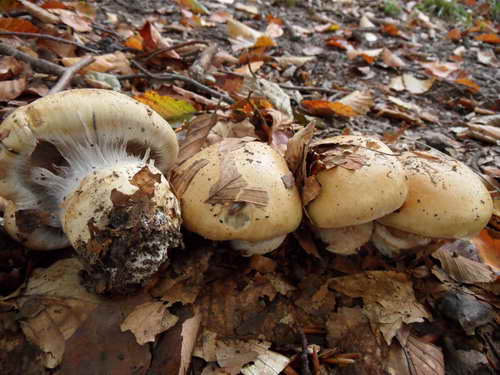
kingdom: Fungi
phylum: Basidiomycota
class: Agaricomycetes
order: Agaricales
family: Cortinariaceae
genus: Cortinarius
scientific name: Cortinarius anserinus
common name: bøge-slørhat
